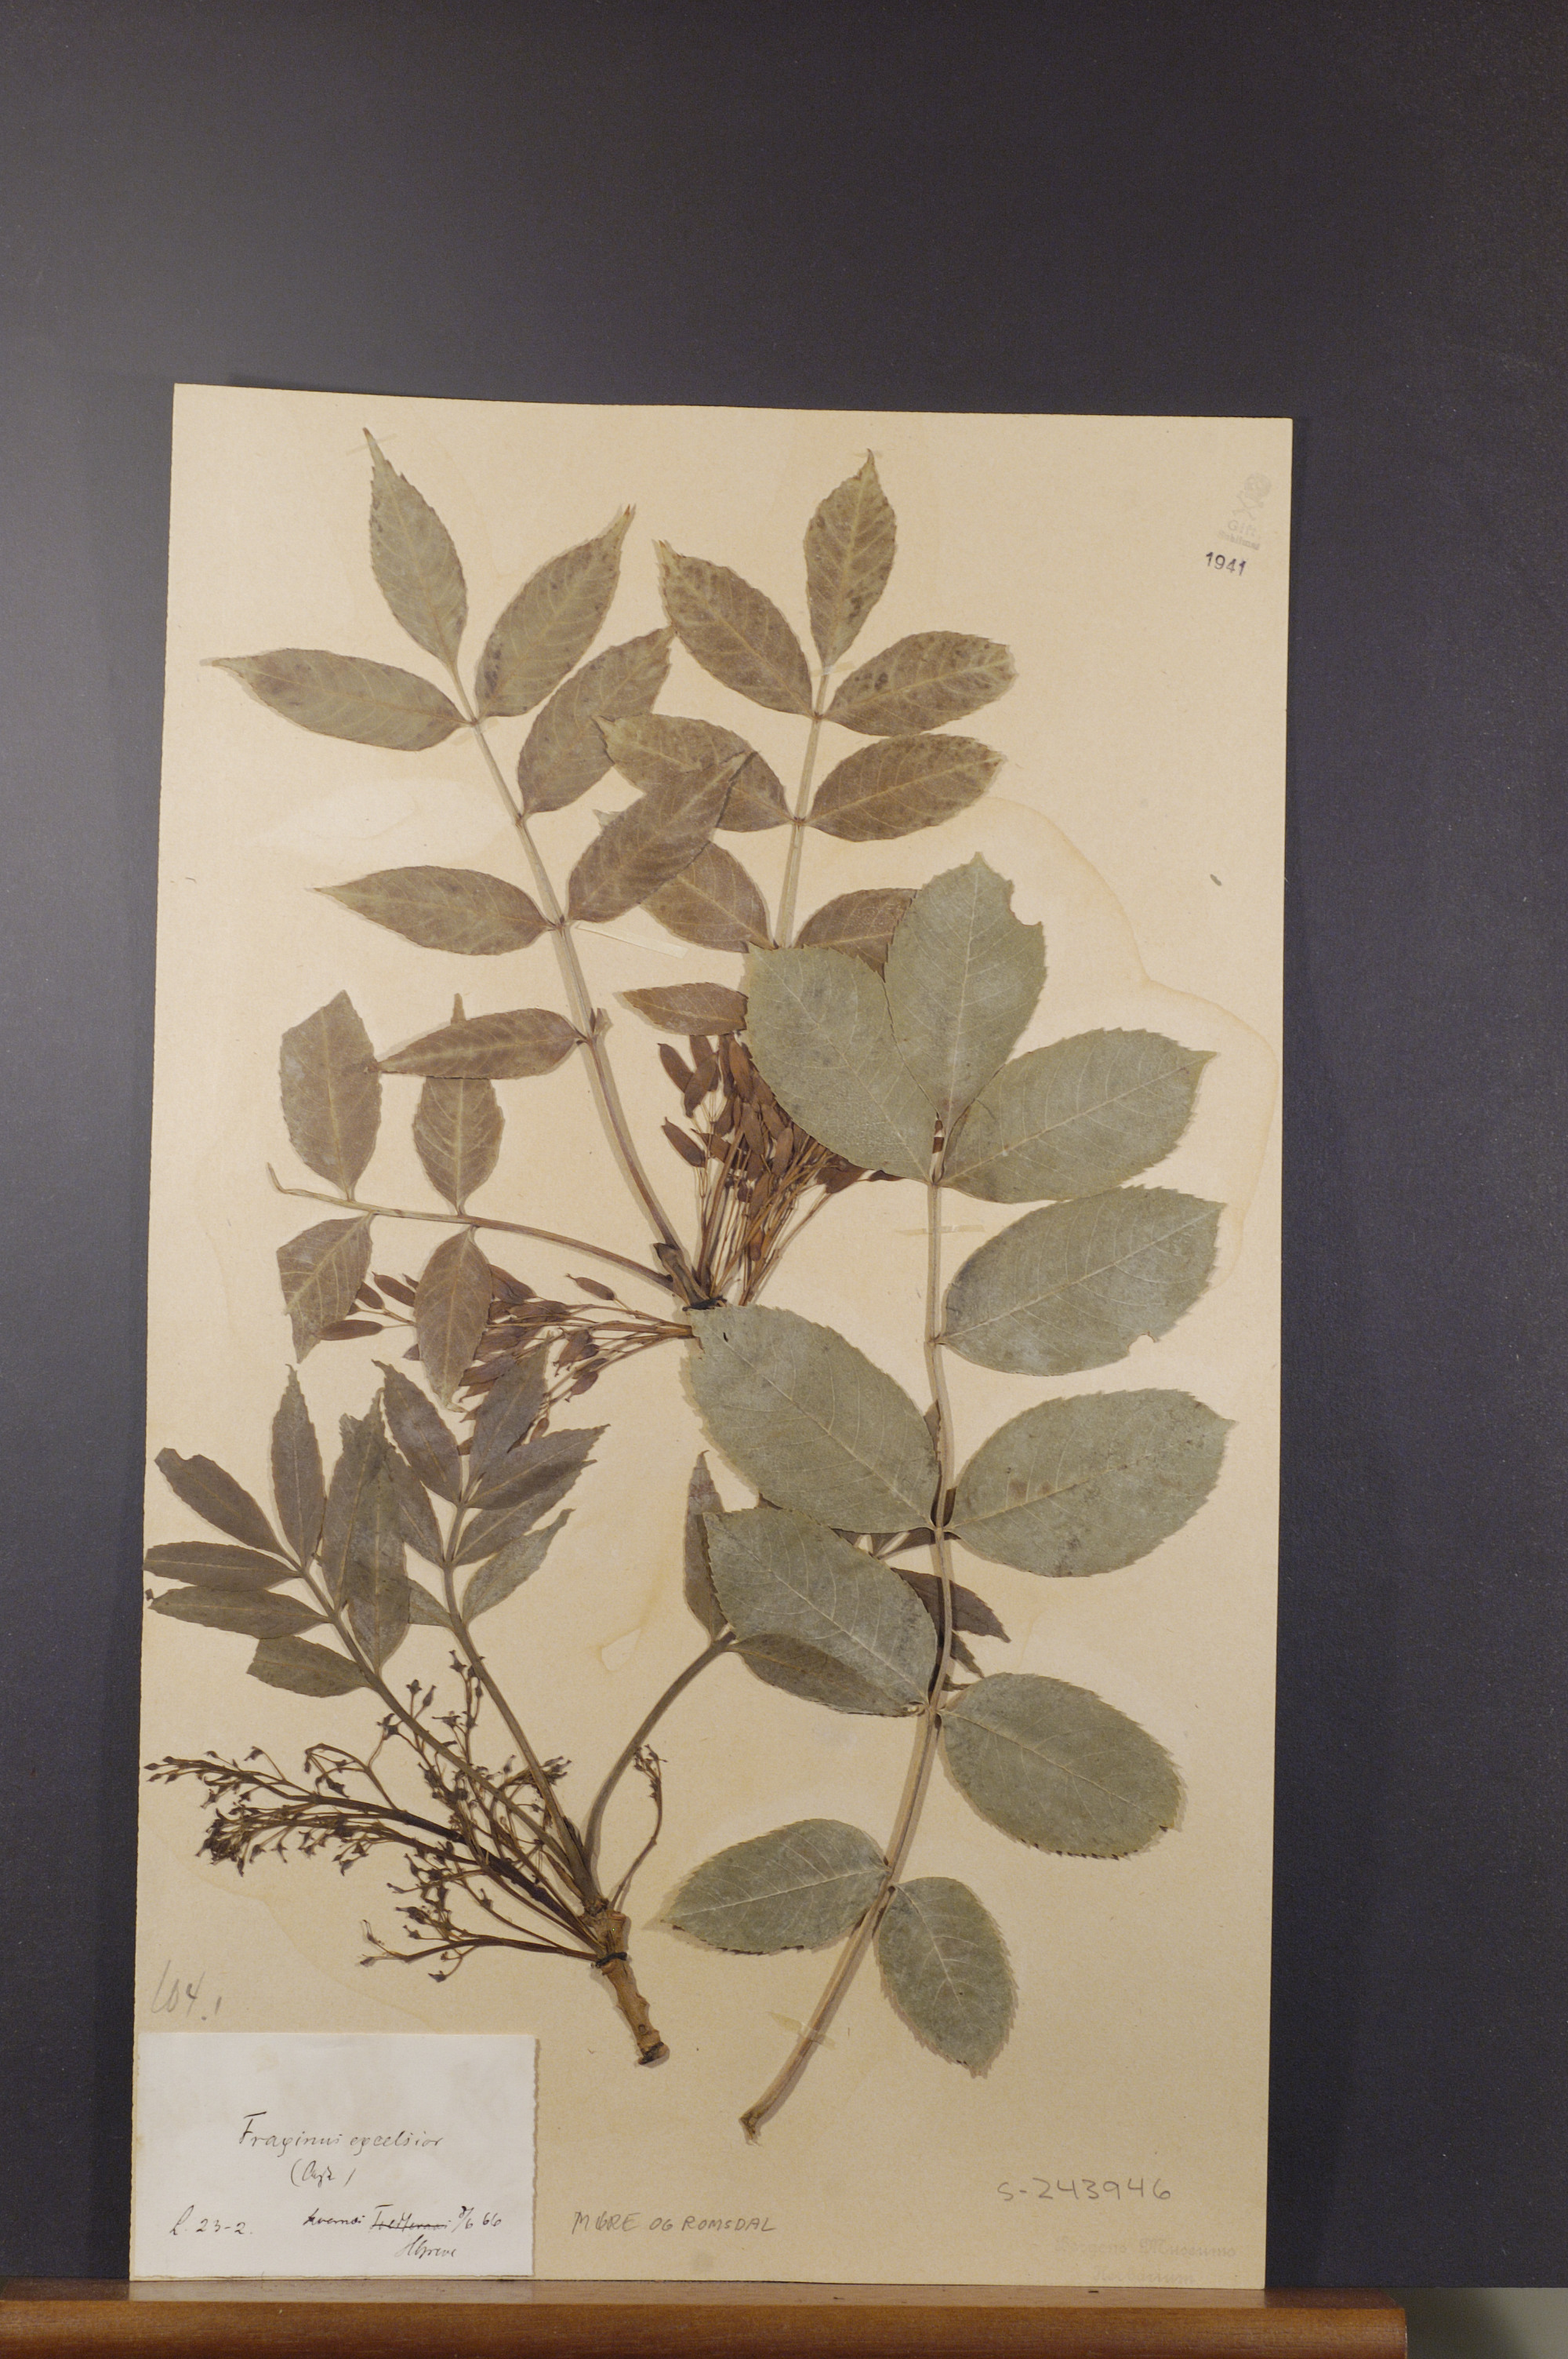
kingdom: Plantae
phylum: Tracheophyta
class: Magnoliopsida
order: Lamiales
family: Oleaceae
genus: Fraxinus
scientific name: Fraxinus excelsior
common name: European ash
